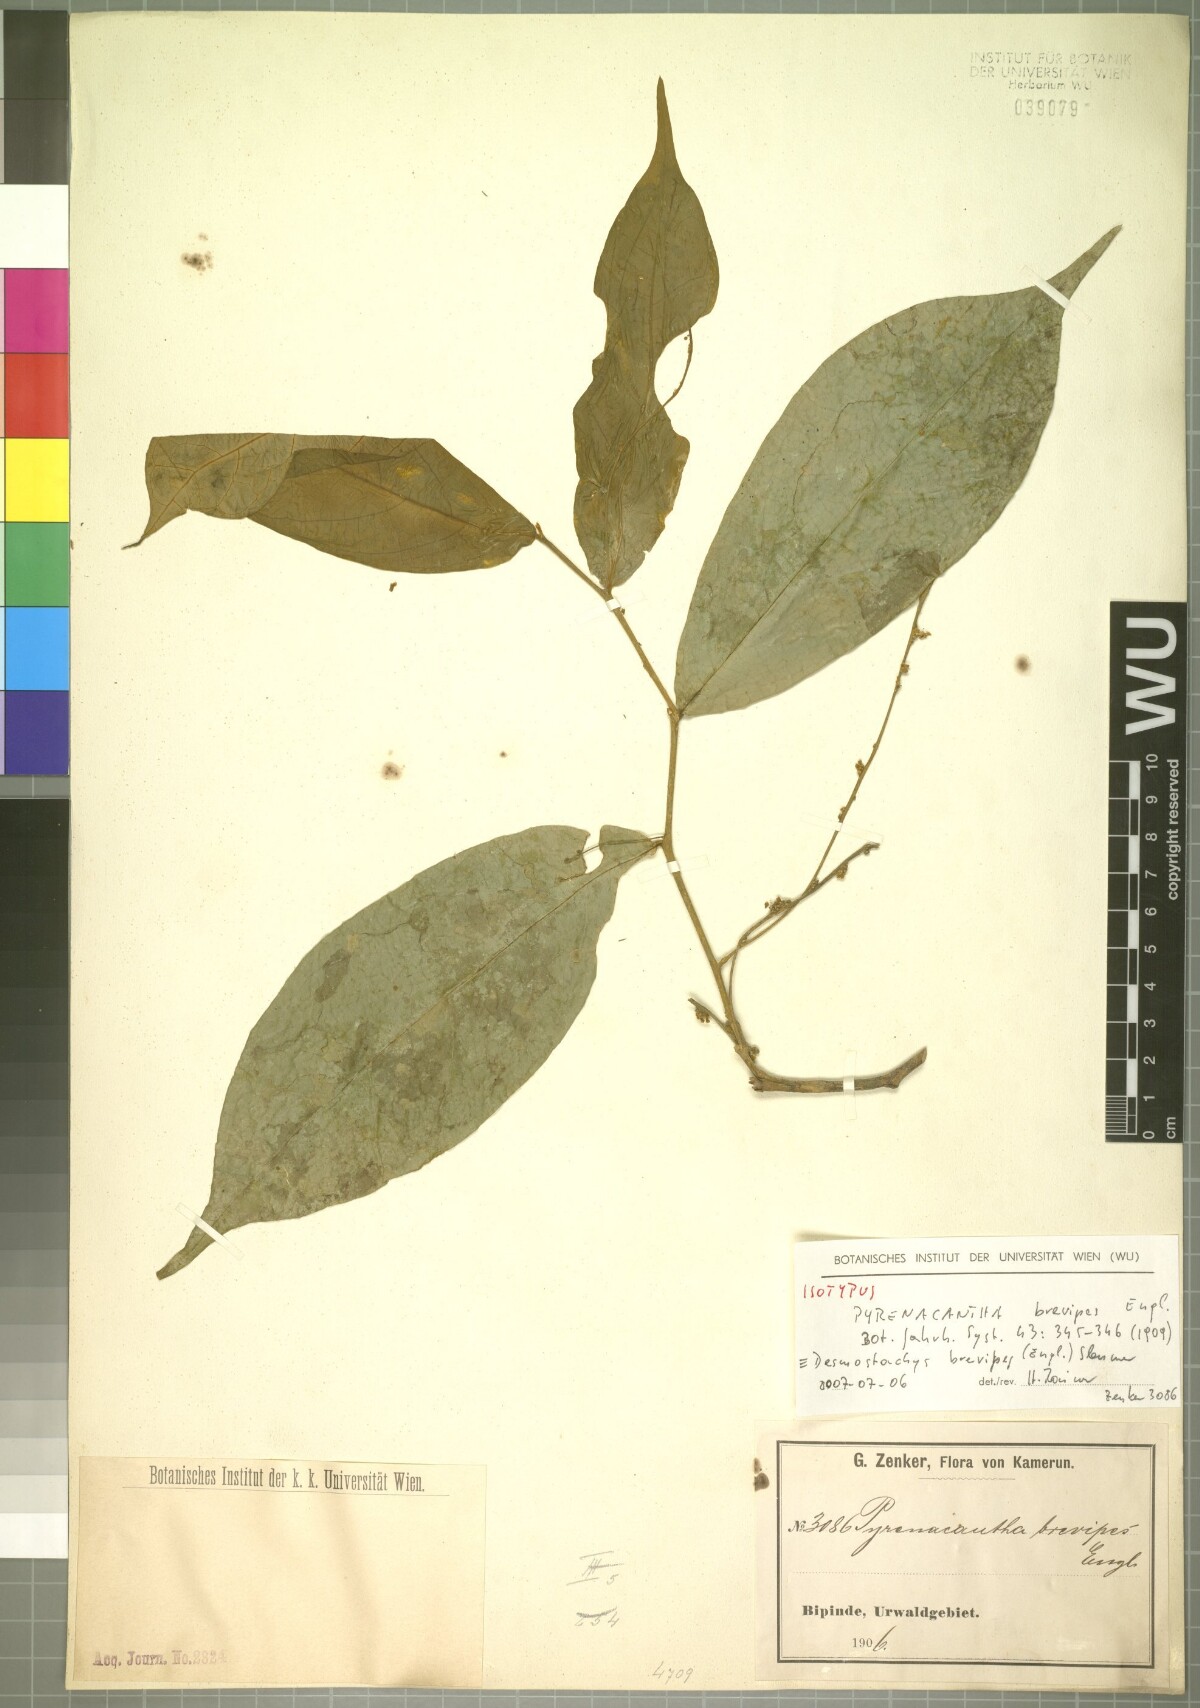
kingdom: Plantae
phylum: Tracheophyta
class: Magnoliopsida
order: Icacinales
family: Icacinaceae
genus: Vadensea
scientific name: Vadensea oblongifolia
